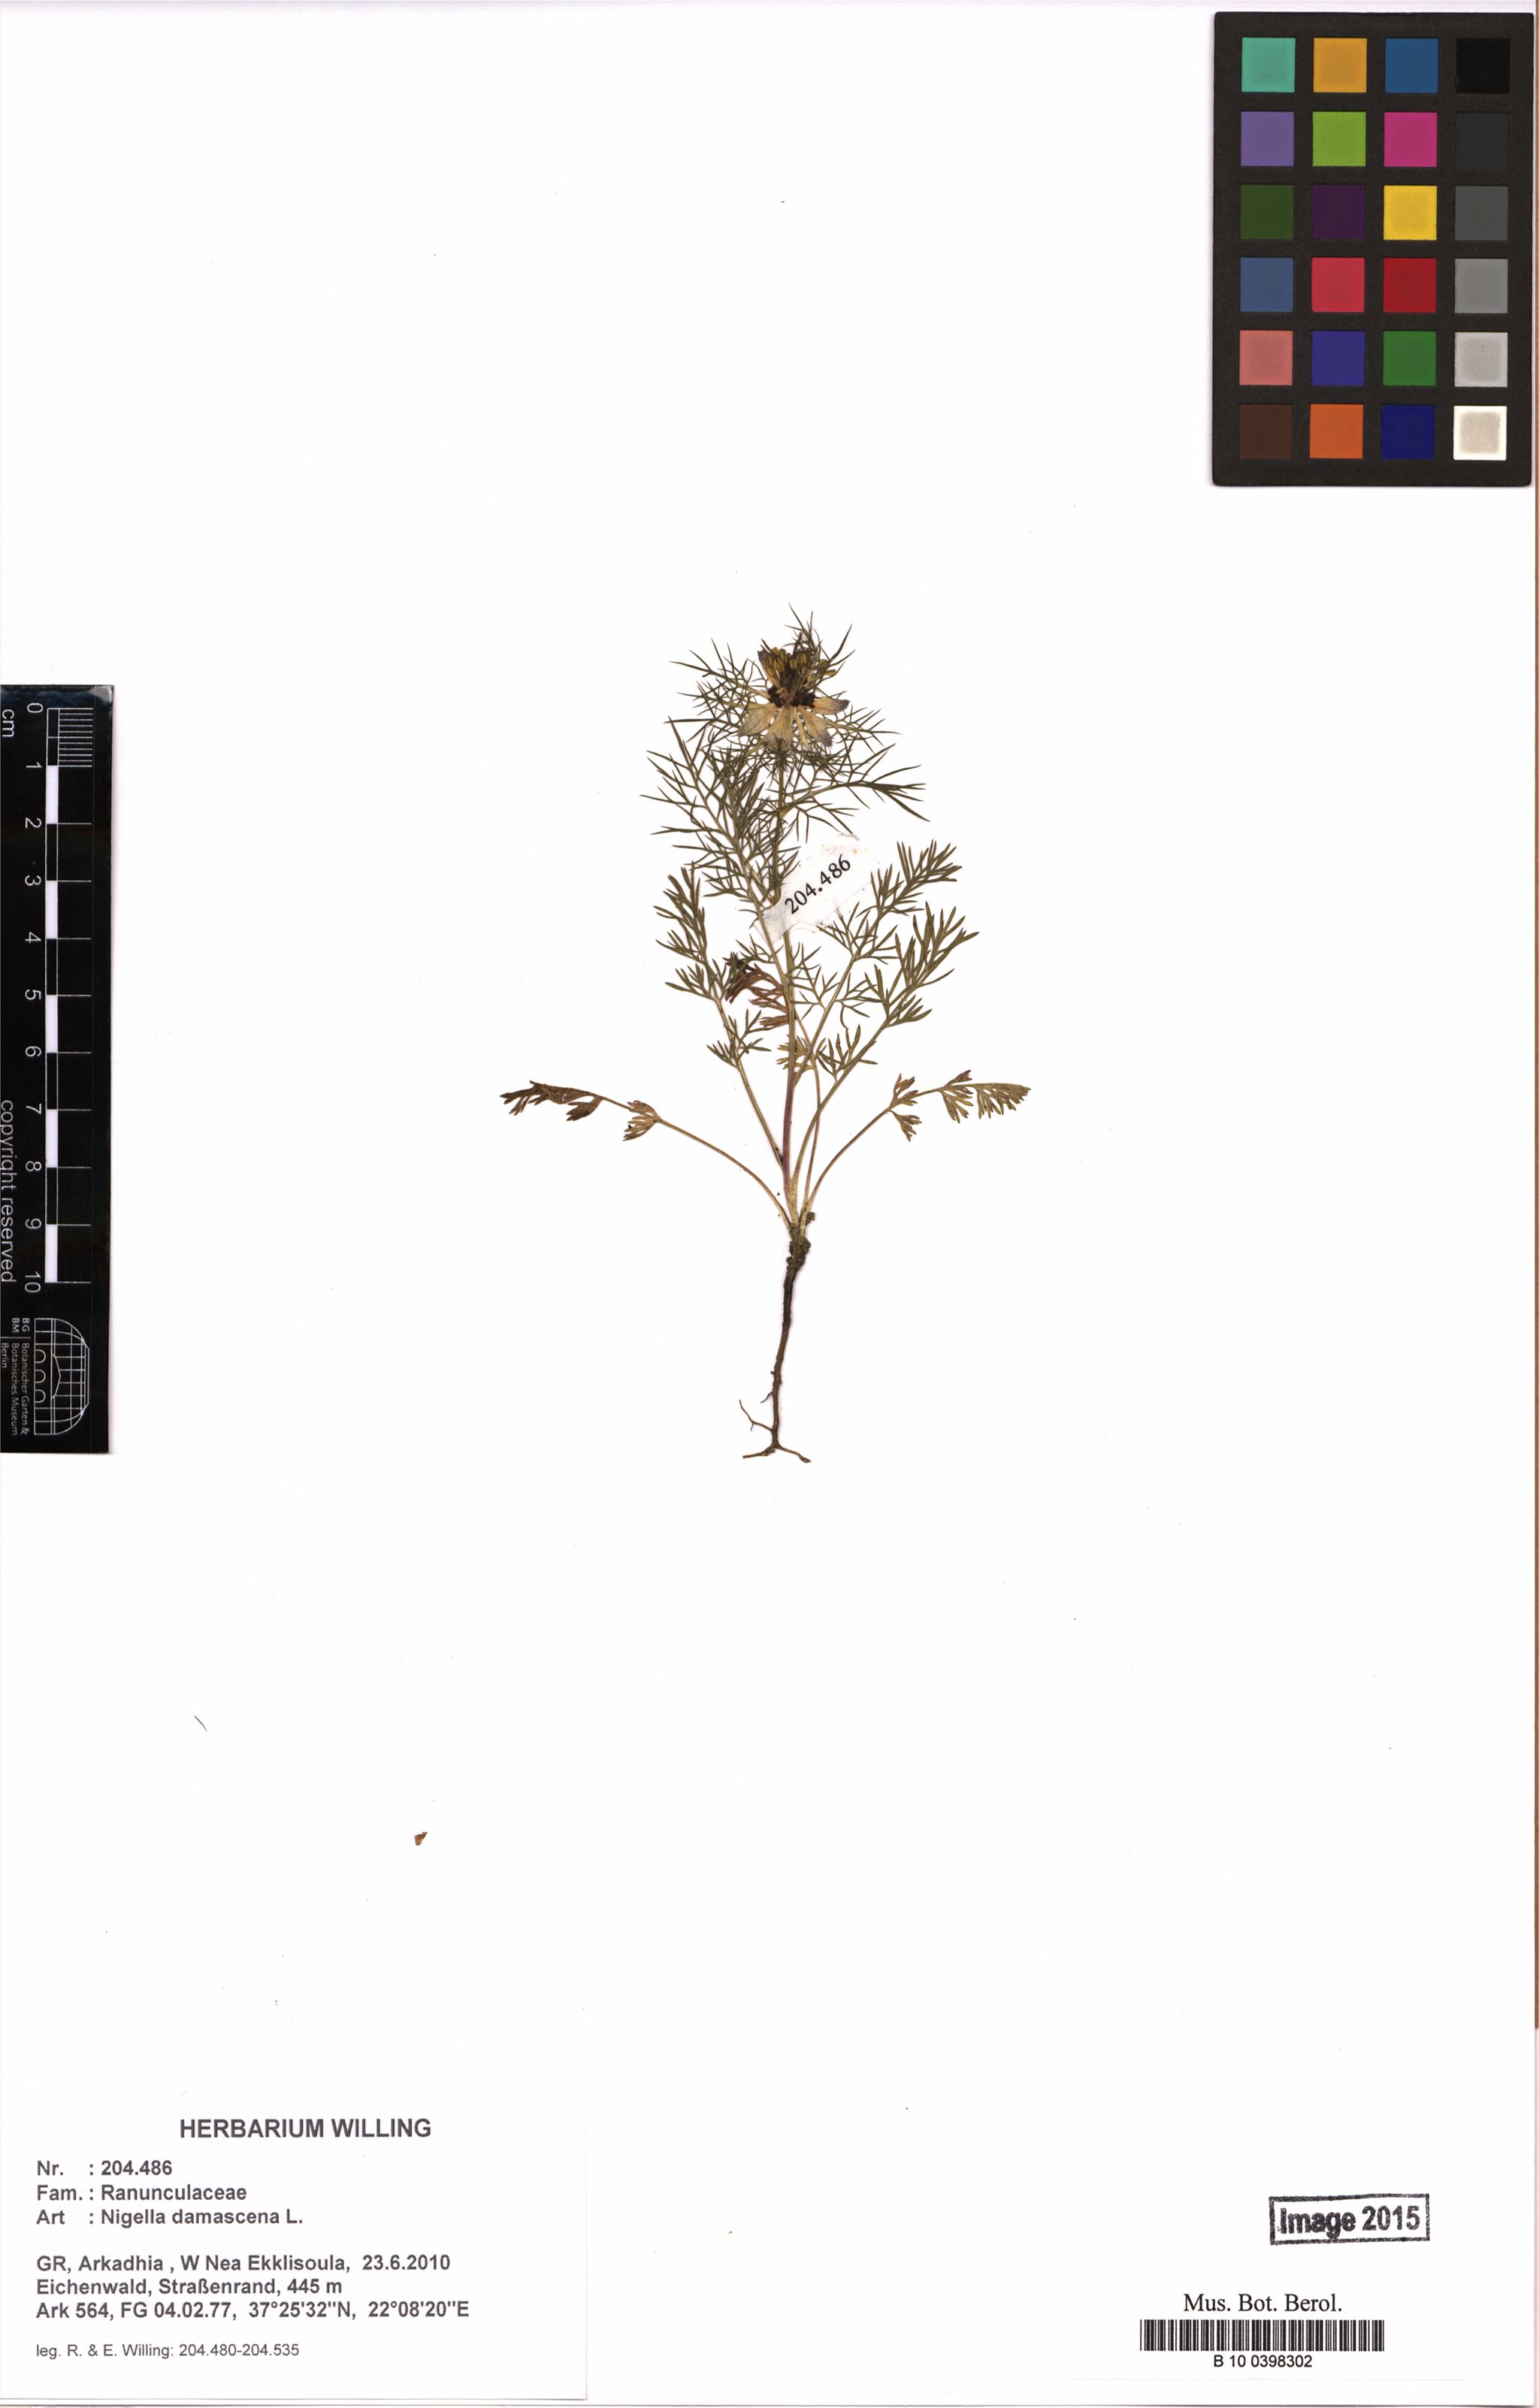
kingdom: Plantae
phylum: Tracheophyta
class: Magnoliopsida
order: Ranunculales
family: Ranunculaceae
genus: Nigella
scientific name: Nigella damascena
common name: Love-in-a-mist
